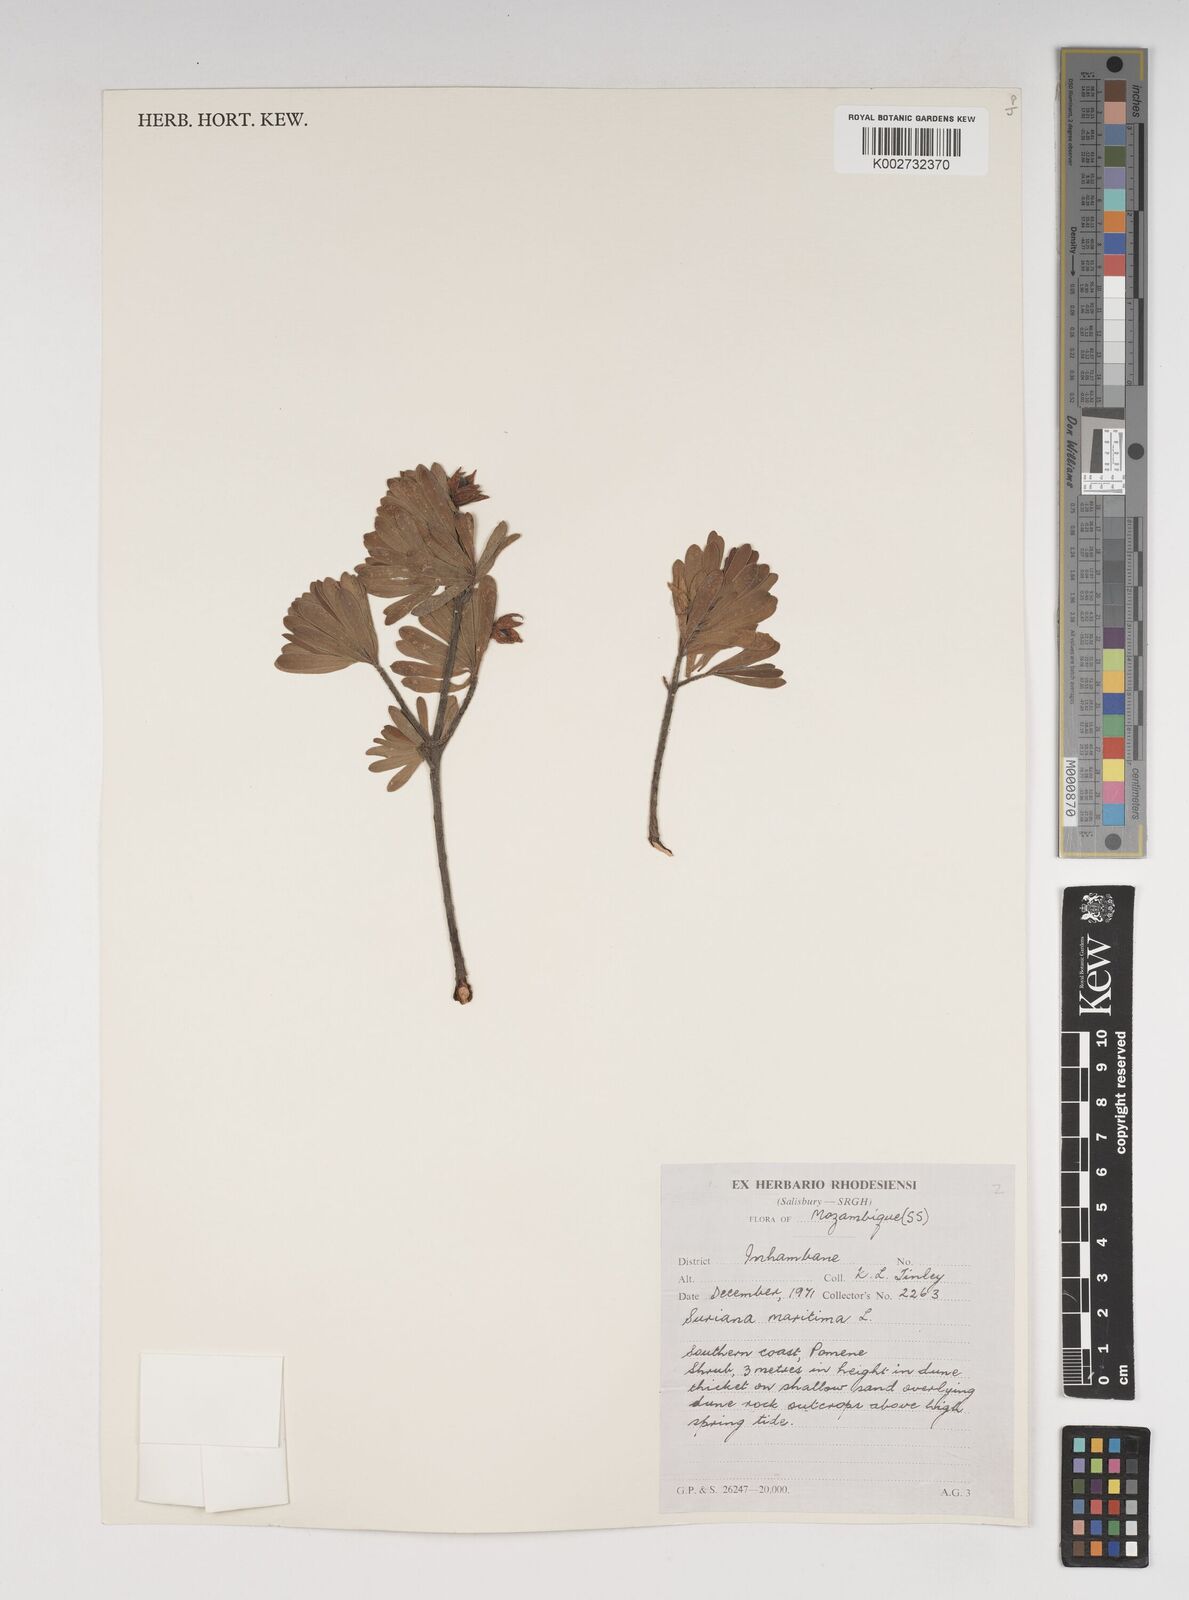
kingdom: Plantae
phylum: Tracheophyta
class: Magnoliopsida
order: Fabales
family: Surianaceae
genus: Suriana
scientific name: Suriana maritima
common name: Bay-cedar
